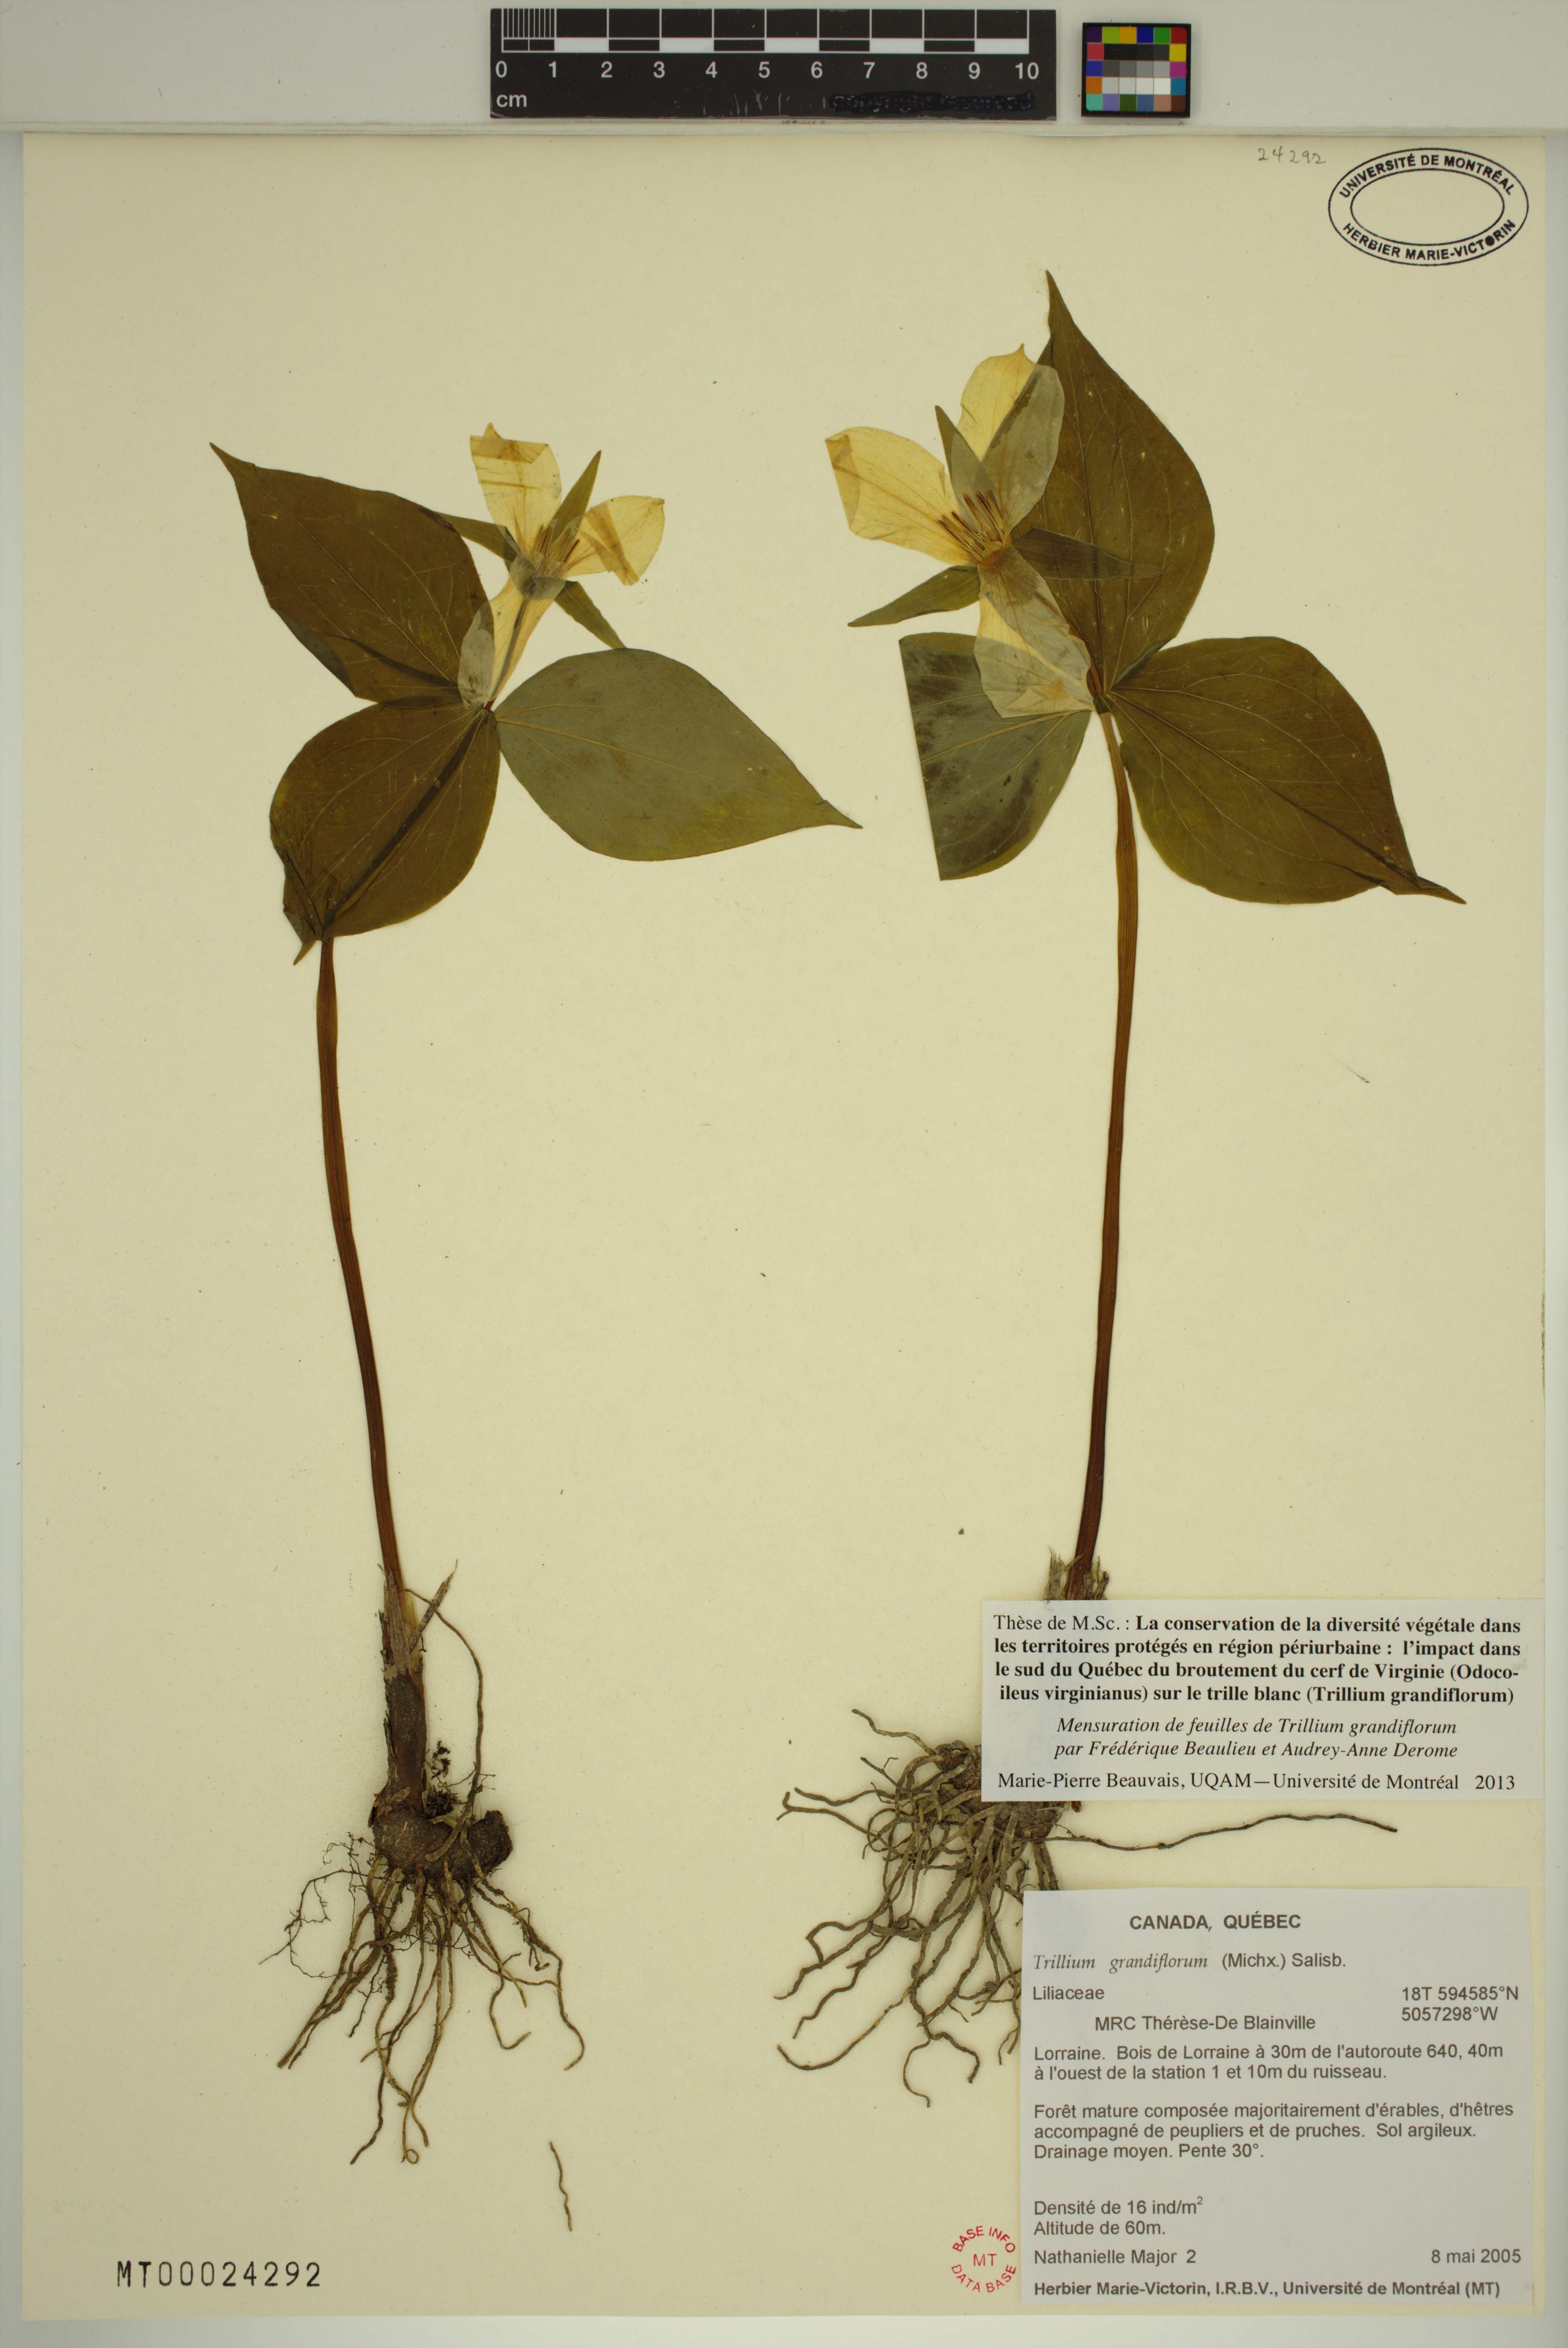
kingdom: Plantae
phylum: Tracheophyta
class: Liliopsida
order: Liliales
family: Melanthiaceae
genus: Trillium
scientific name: Trillium grandiflorum
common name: Great white trillium
